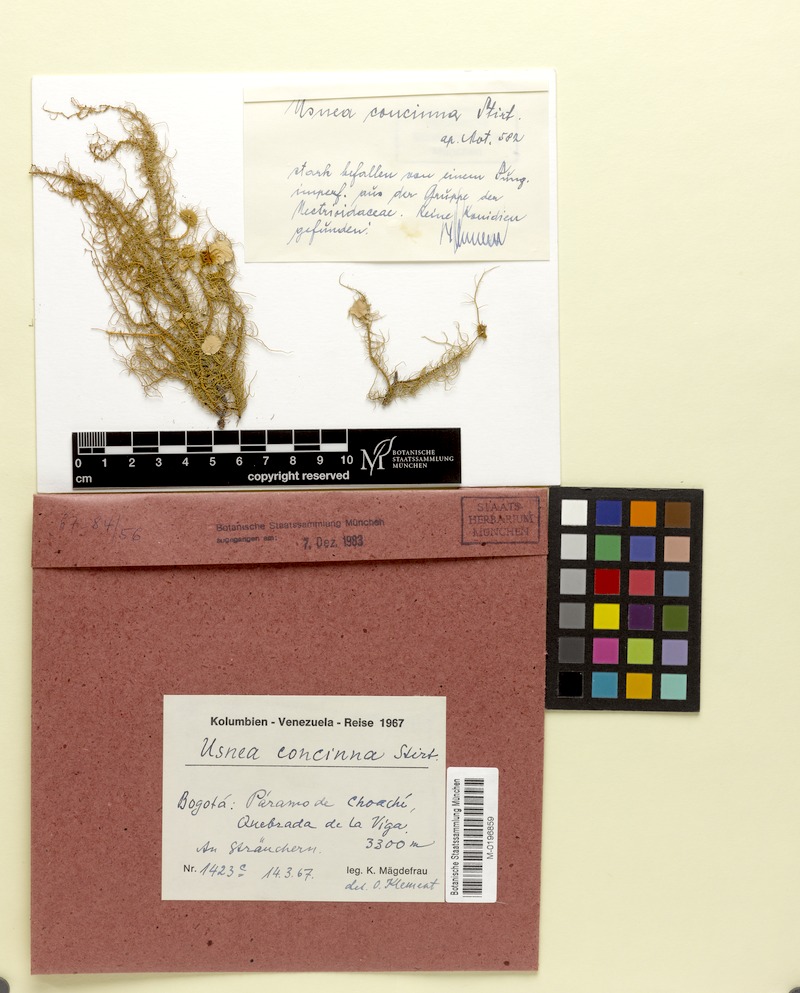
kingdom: Fungi
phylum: Ascomycota
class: Lecanoromycetes
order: Lecanorales
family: Parmeliaceae
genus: Usnea
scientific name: Usnea
